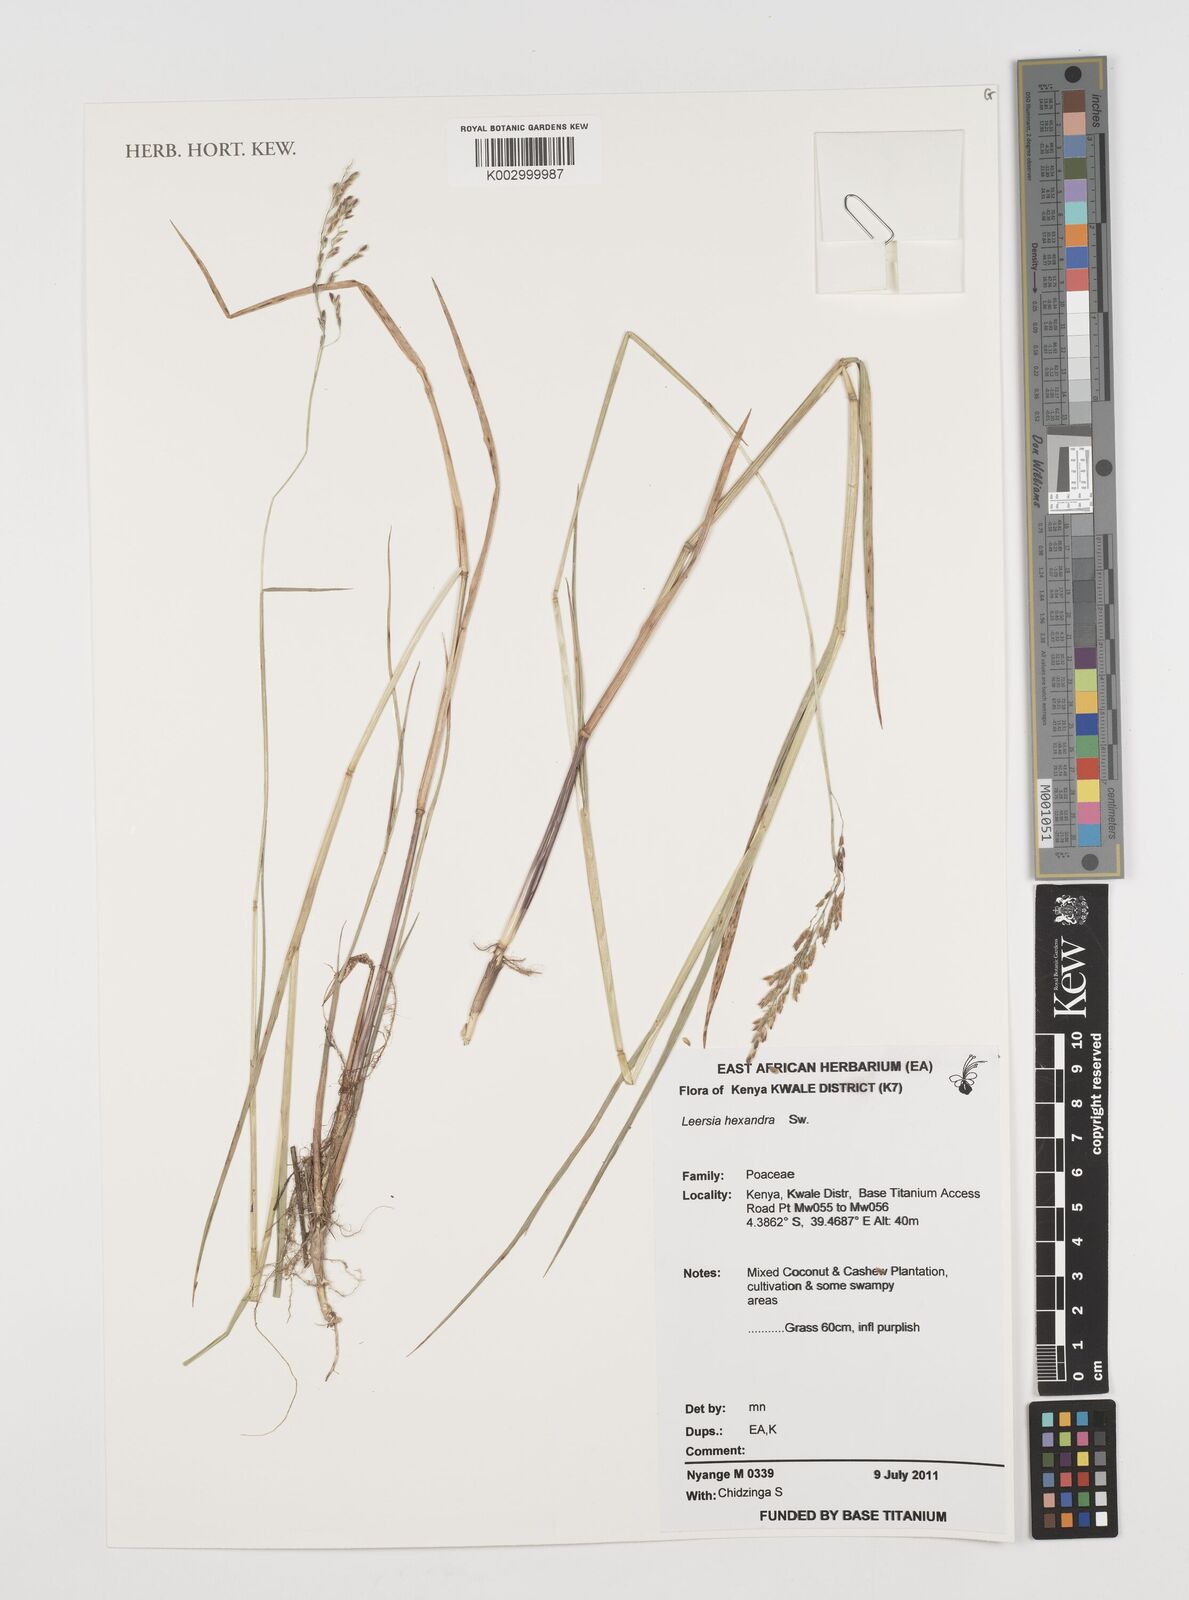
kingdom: Plantae
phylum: Tracheophyta
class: Liliopsida
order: Poales
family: Poaceae
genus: Leersia
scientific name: Leersia hexandra
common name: Southern cut grass
